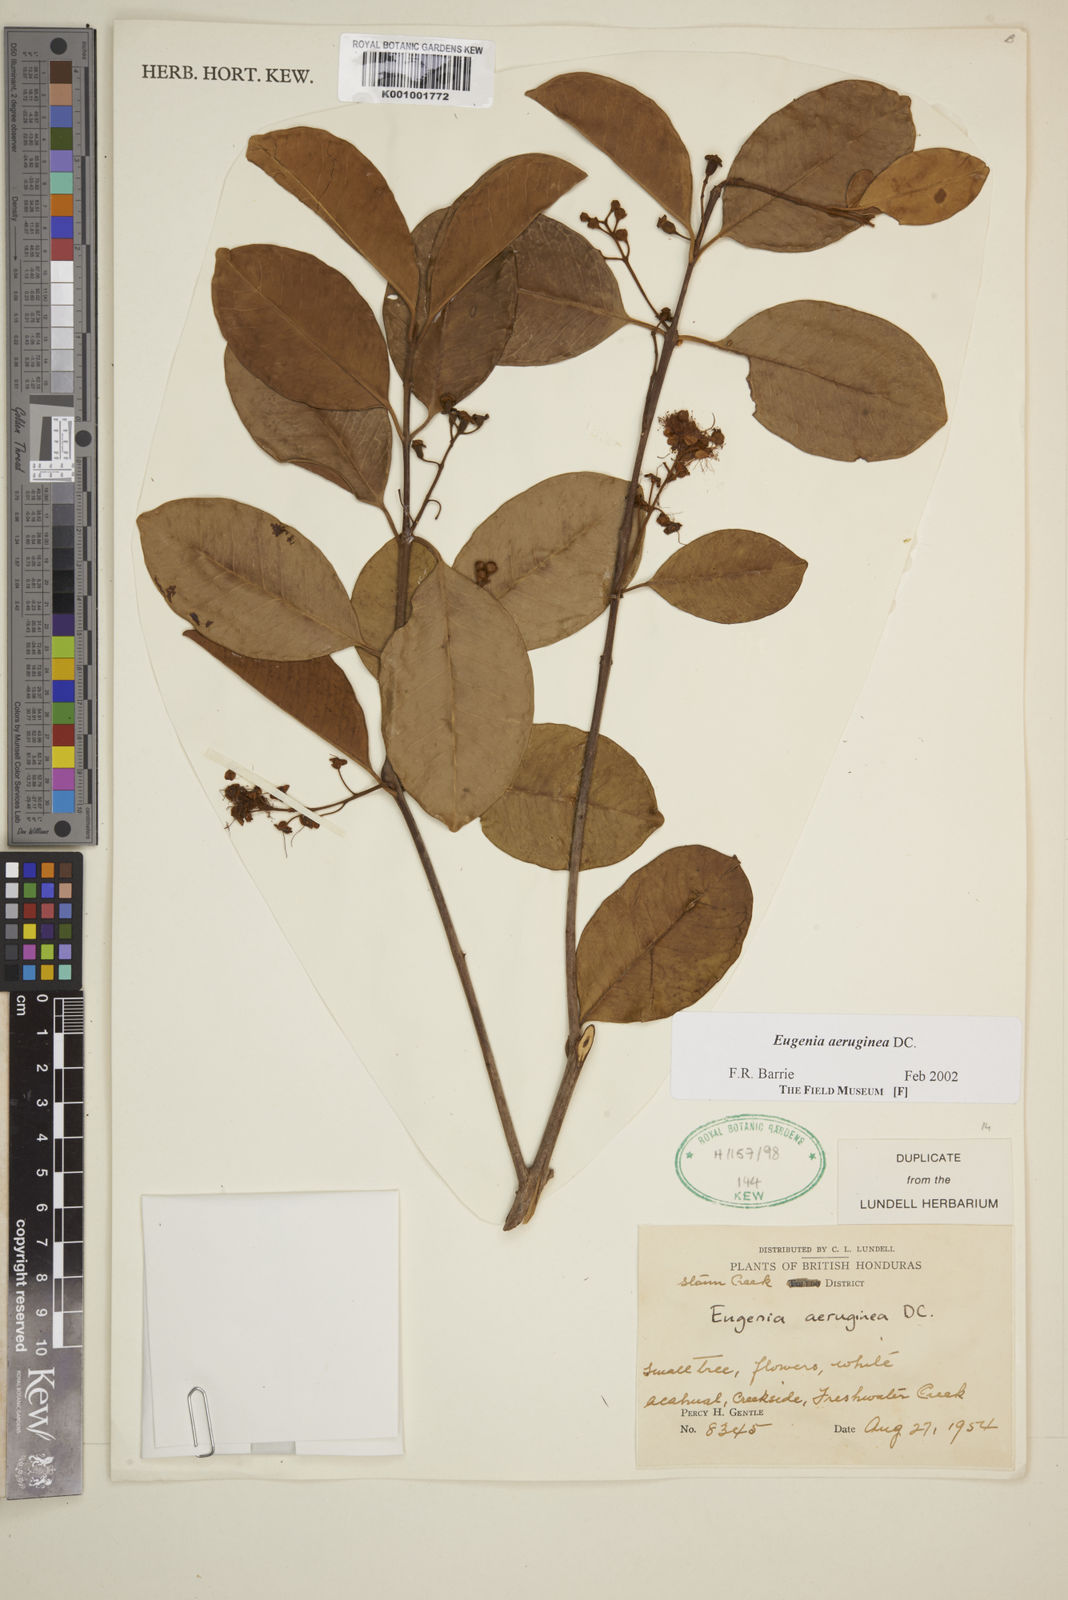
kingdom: Plantae
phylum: Tracheophyta
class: Magnoliopsida
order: Myrtales
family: Myrtaceae
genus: Eugenia
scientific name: Eugenia aeruginea
